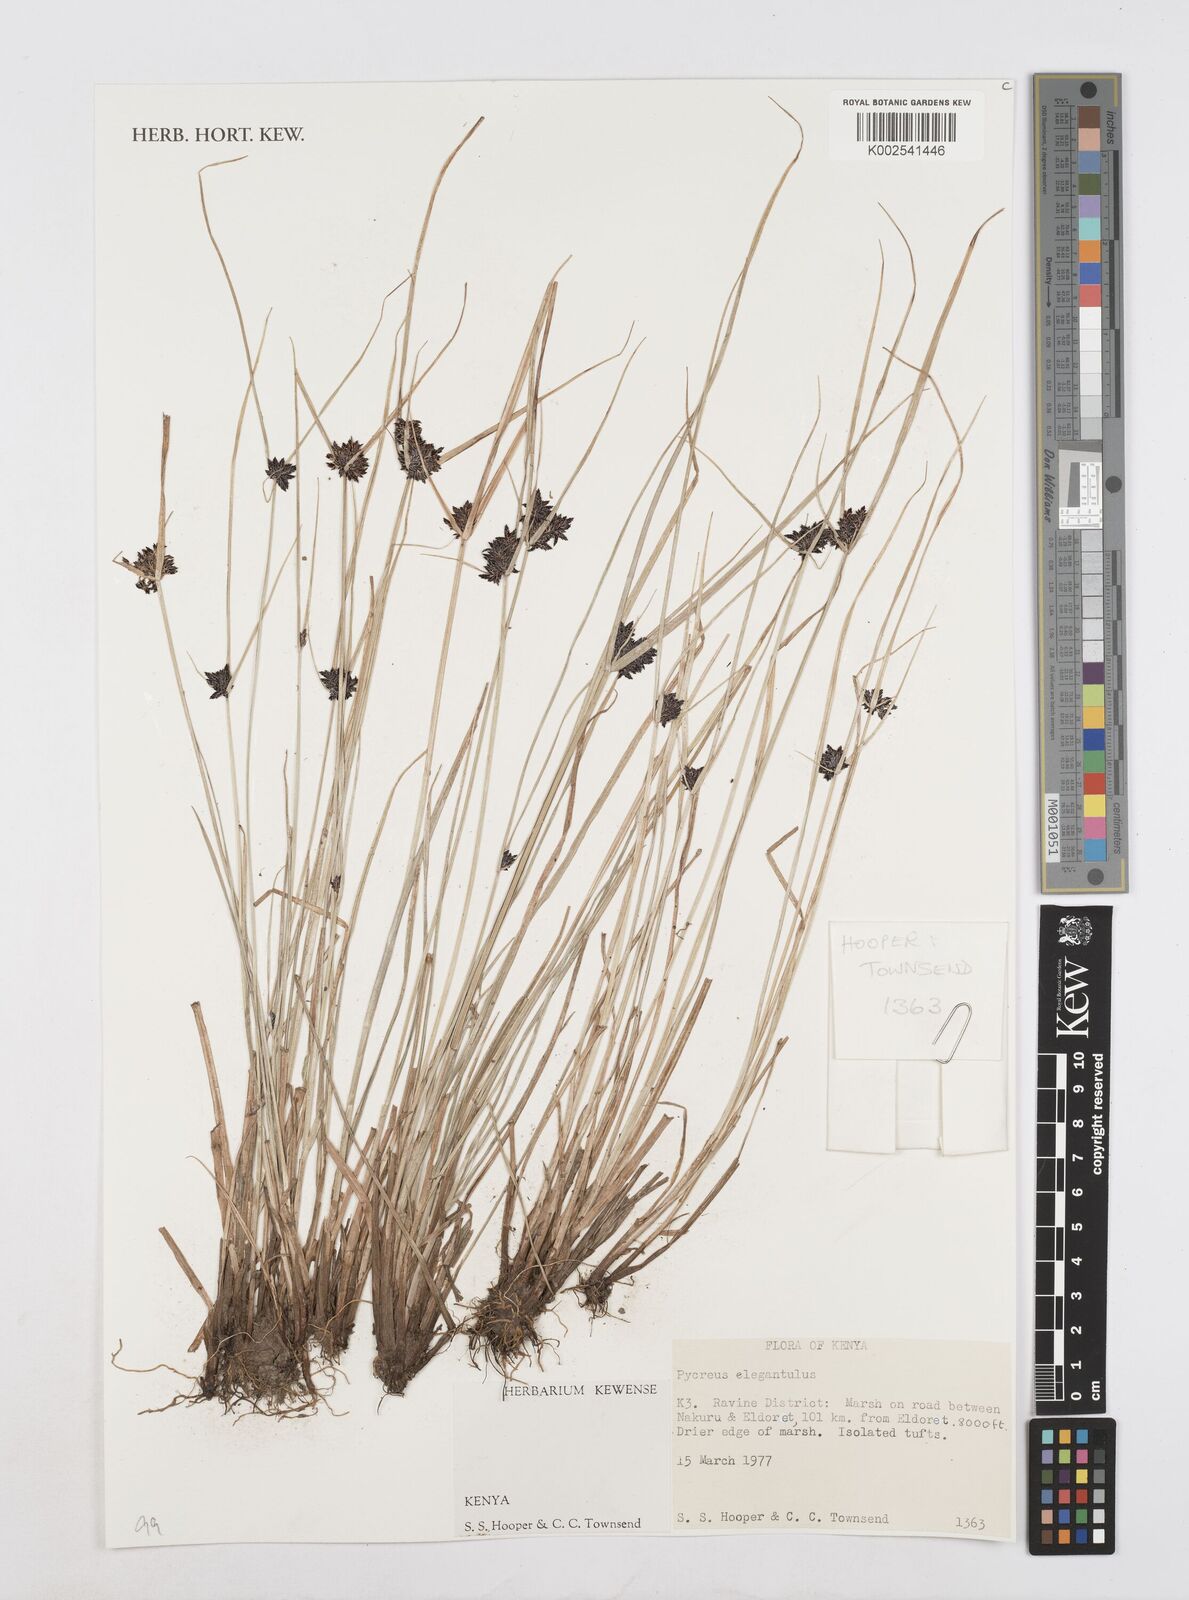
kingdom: Plantae
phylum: Tracheophyta
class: Liliopsida
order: Poales
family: Cyperaceae
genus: Cyperus
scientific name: Cyperus elegantulus
